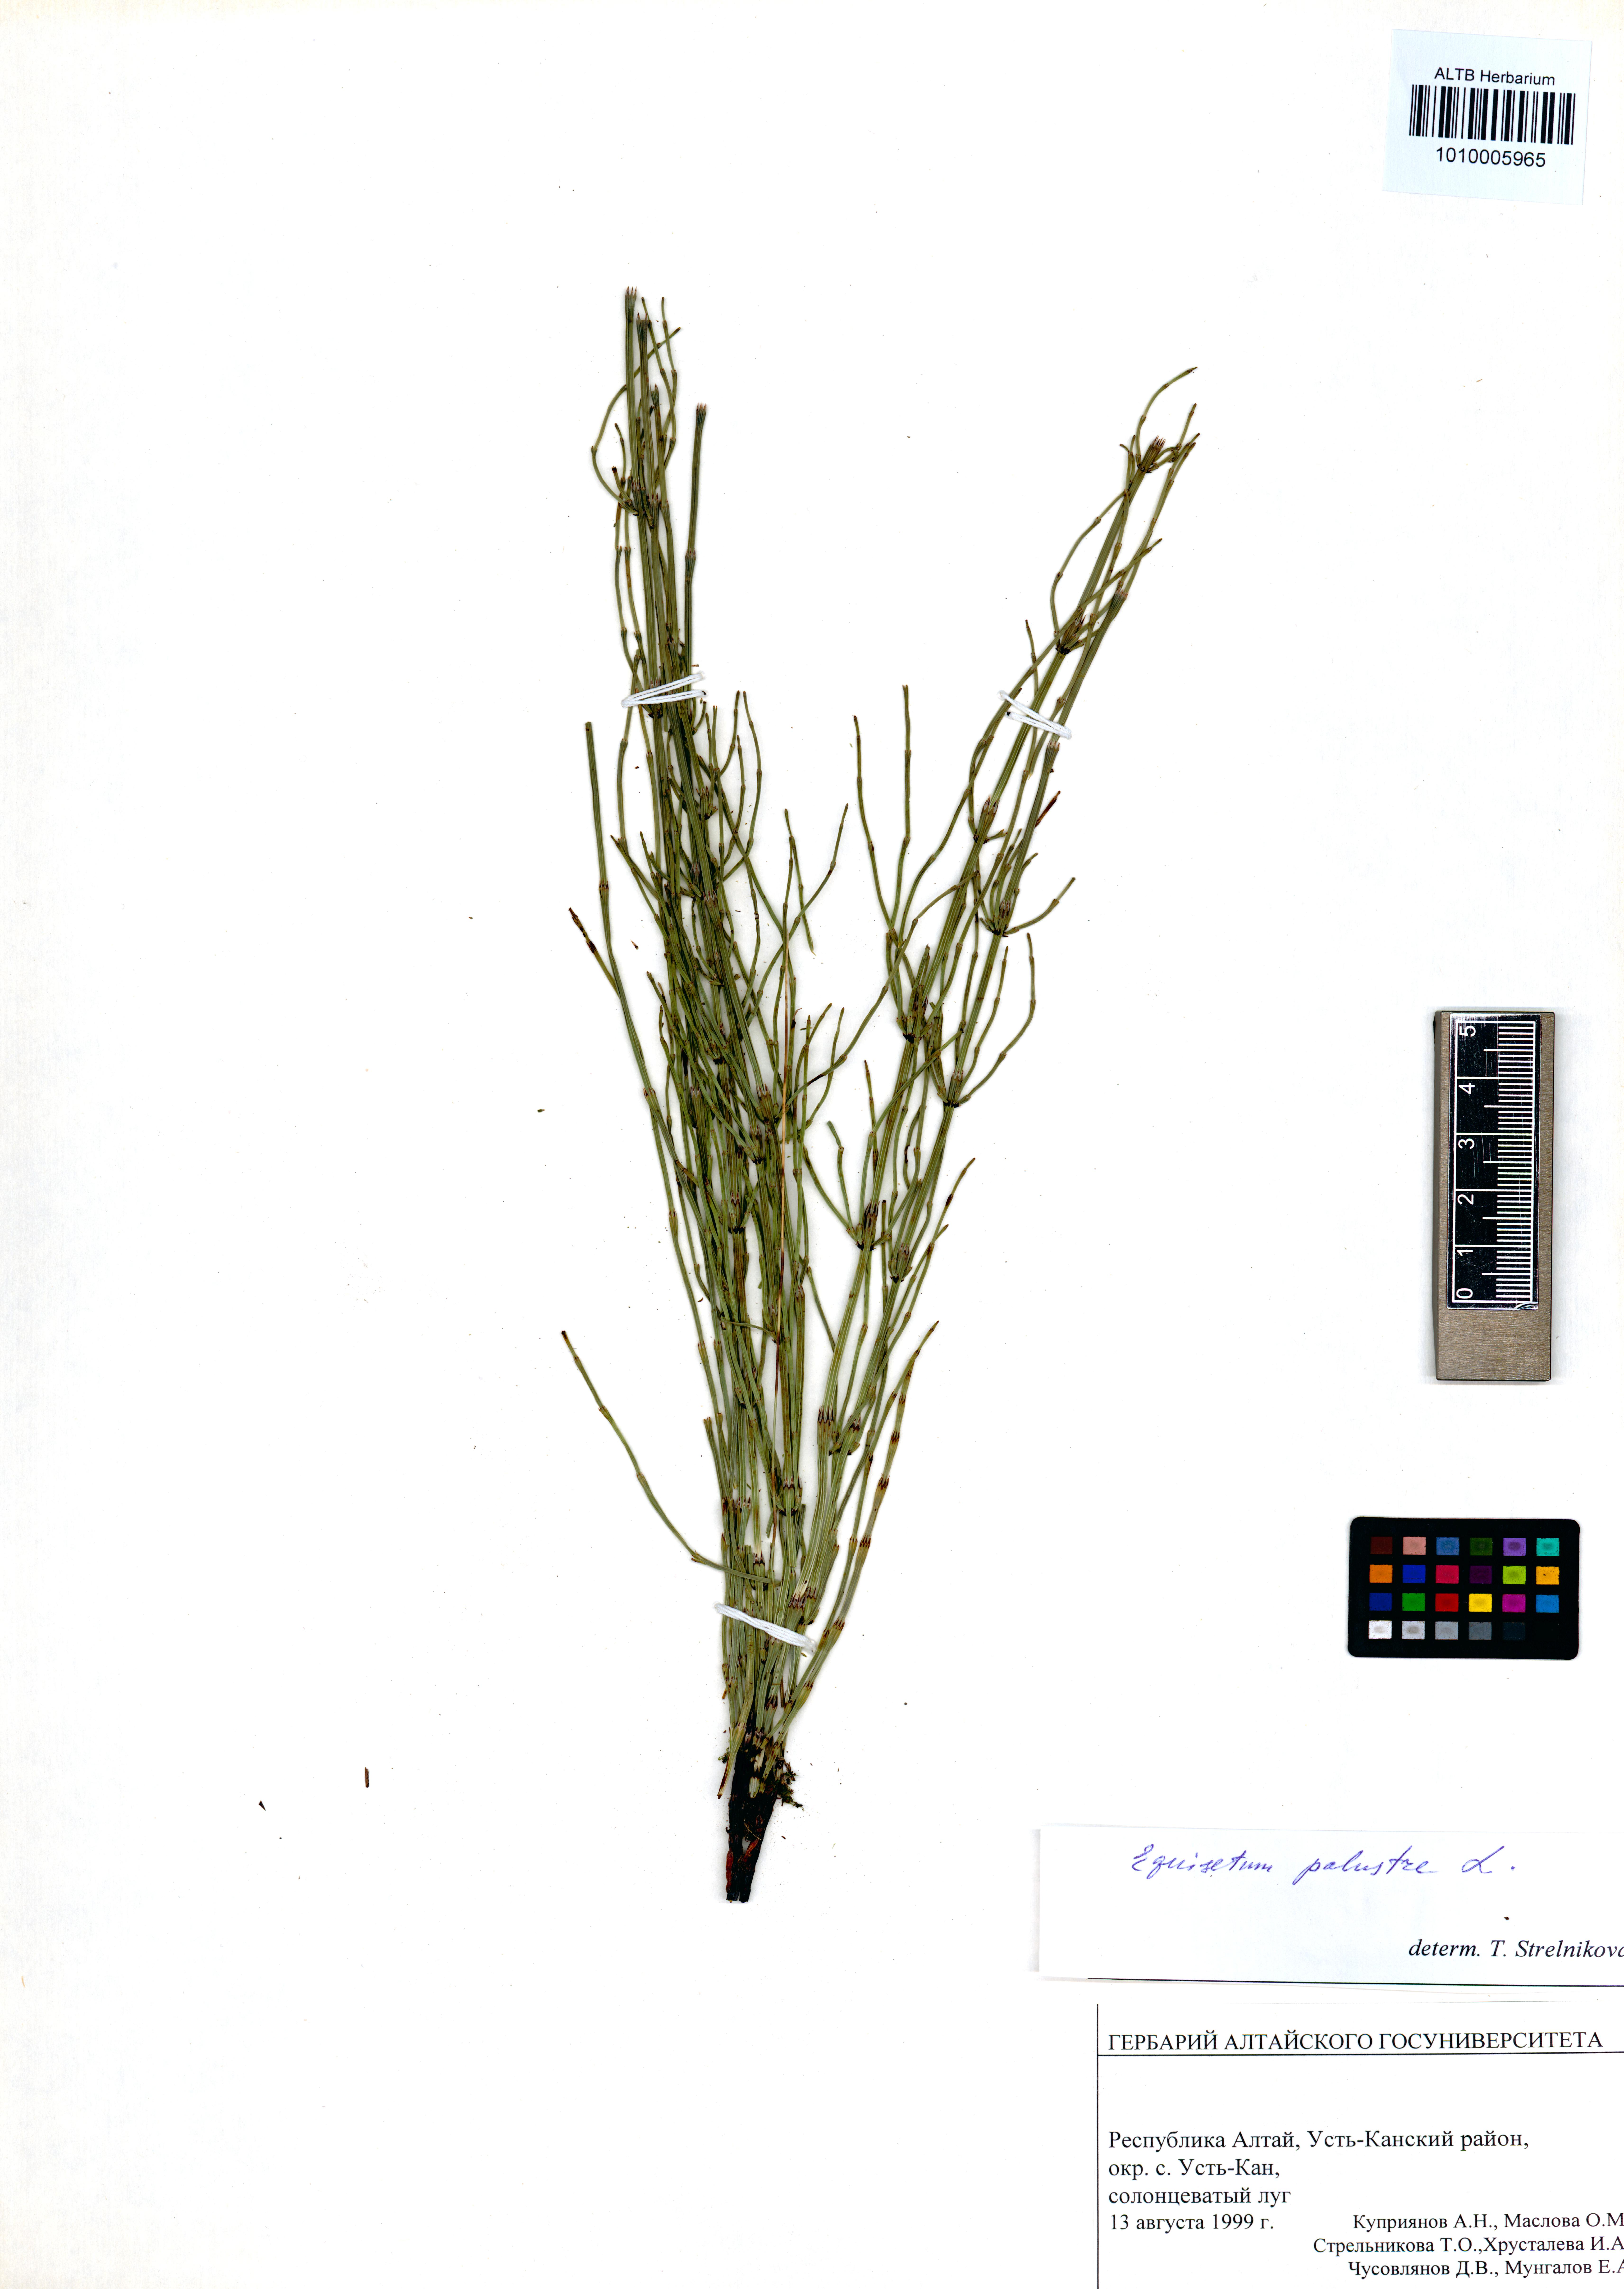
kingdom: Plantae
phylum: Tracheophyta
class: Polypodiopsida
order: Equisetales
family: Equisetaceae
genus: Equisetum
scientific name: Equisetum palustre
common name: Marsh horsetail
